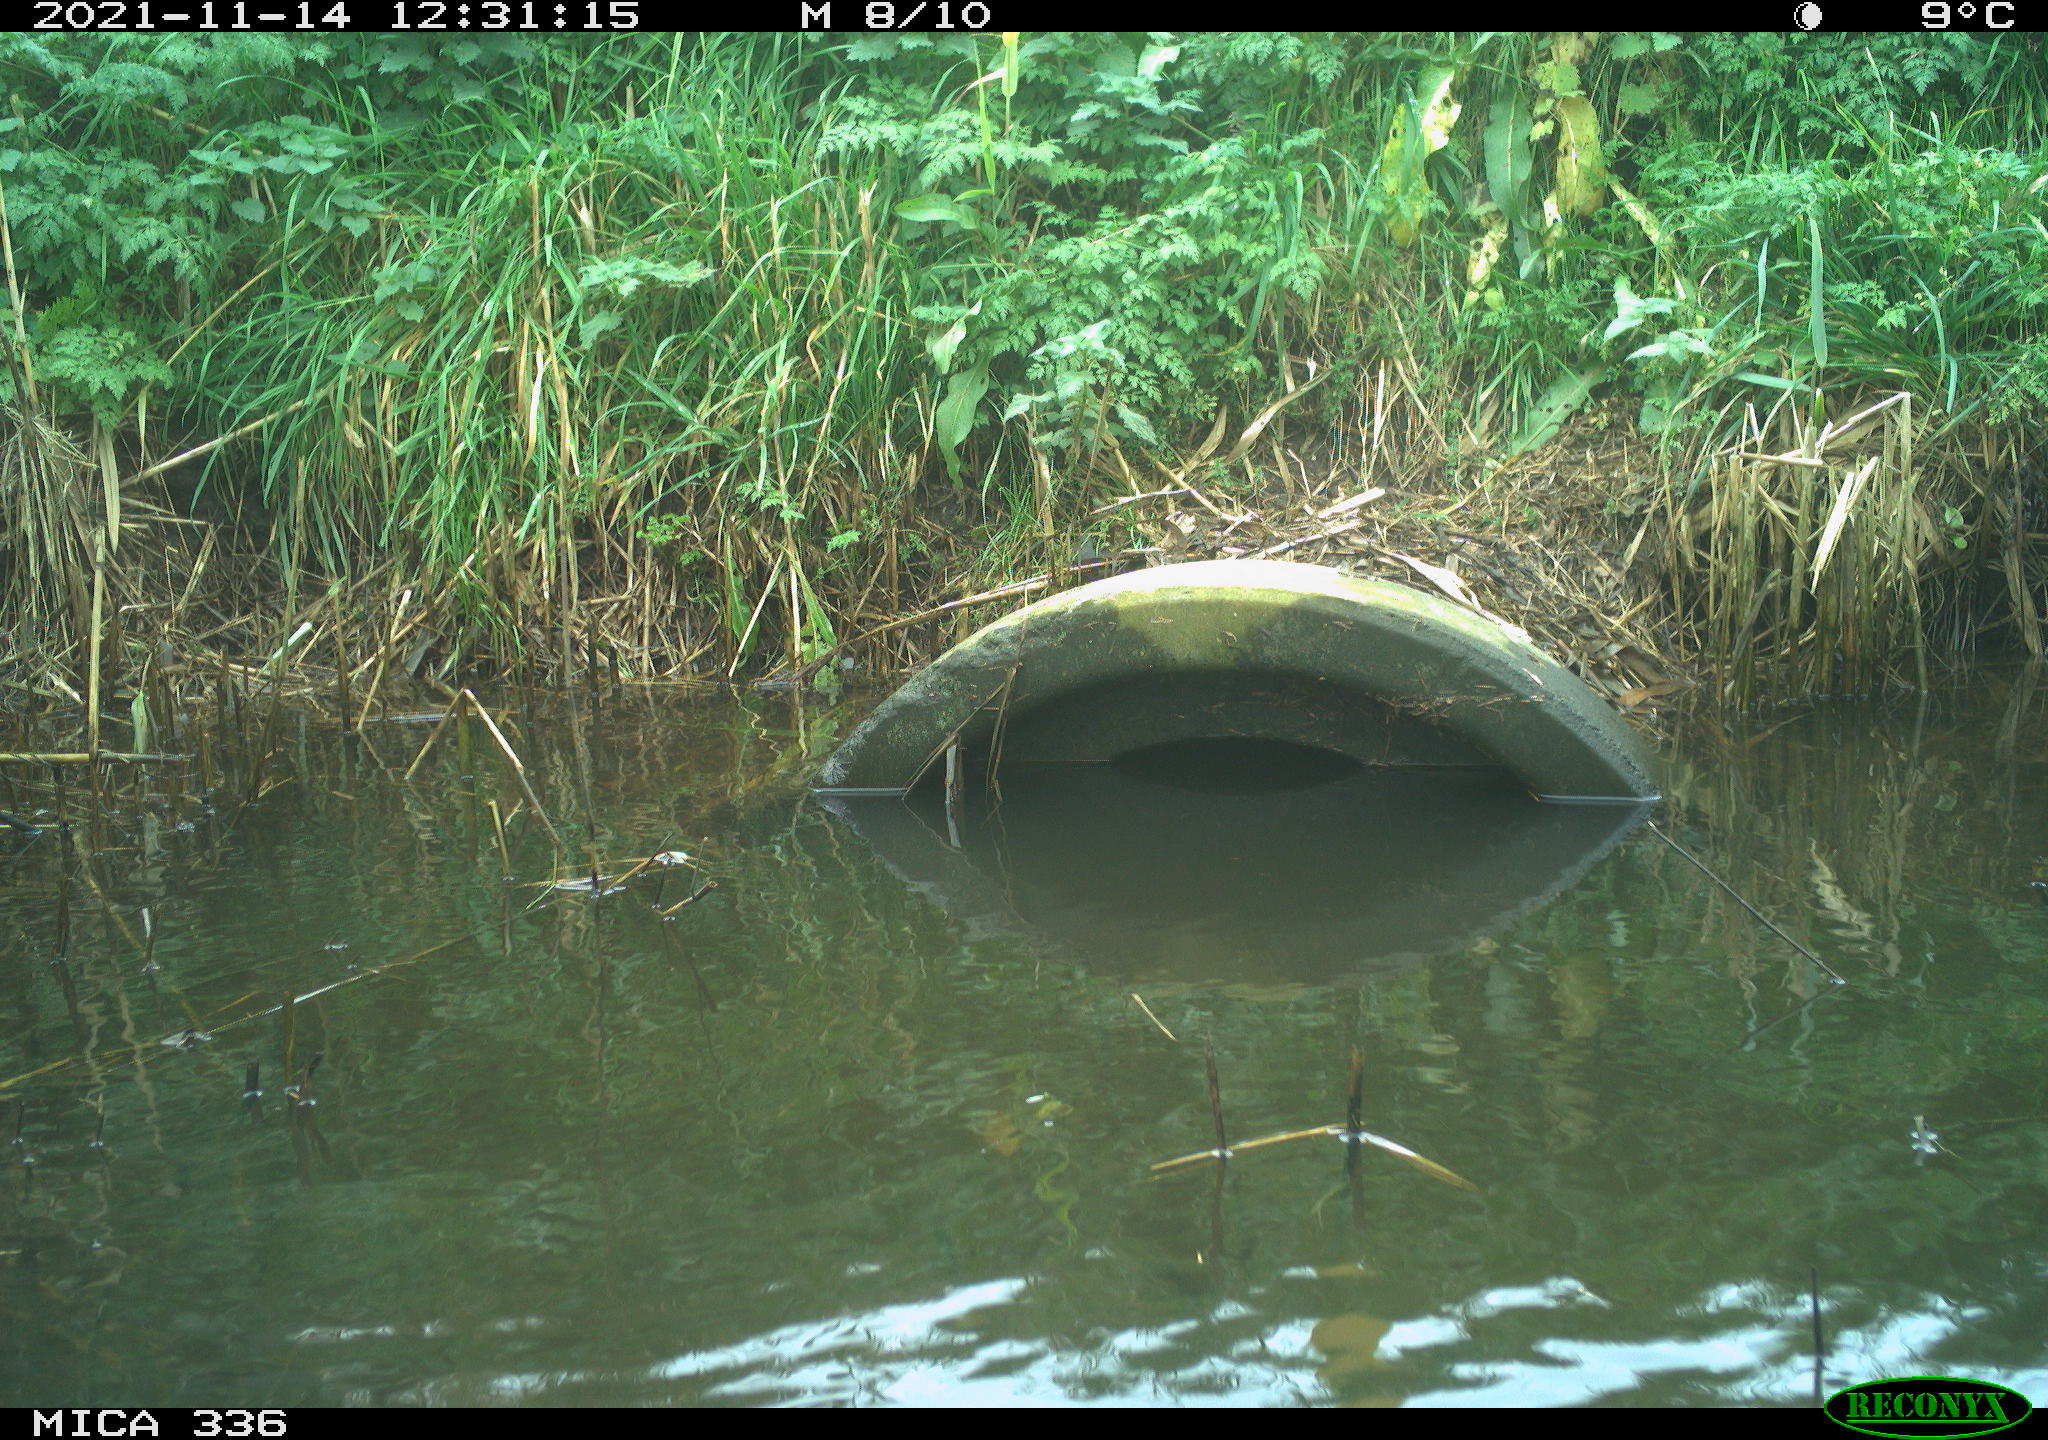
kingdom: Animalia
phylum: Chordata
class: Aves
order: Gruiformes
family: Rallidae
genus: Gallinula
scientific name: Gallinula chloropus
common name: Common moorhen
